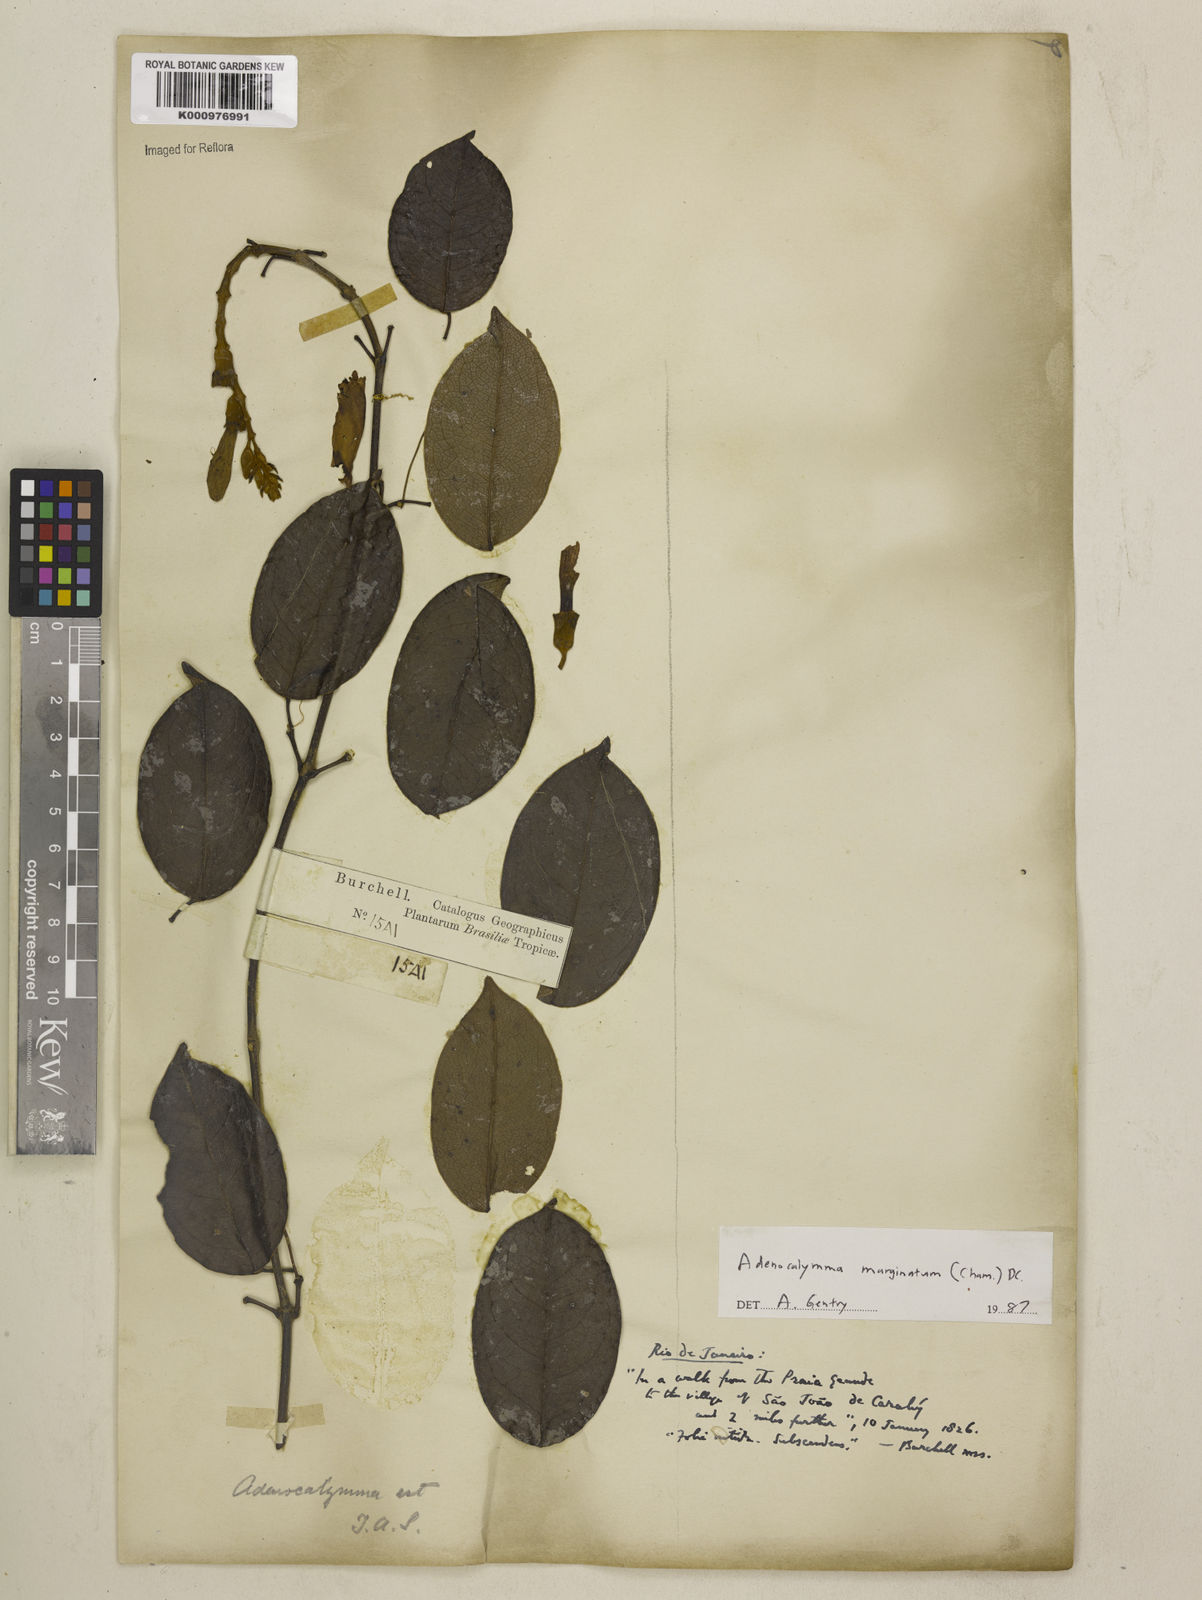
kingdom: Plantae
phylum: Tracheophyta
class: Magnoliopsida
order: Lamiales
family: Bignoniaceae
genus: Adenocalymma
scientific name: Adenocalymma marginatum
